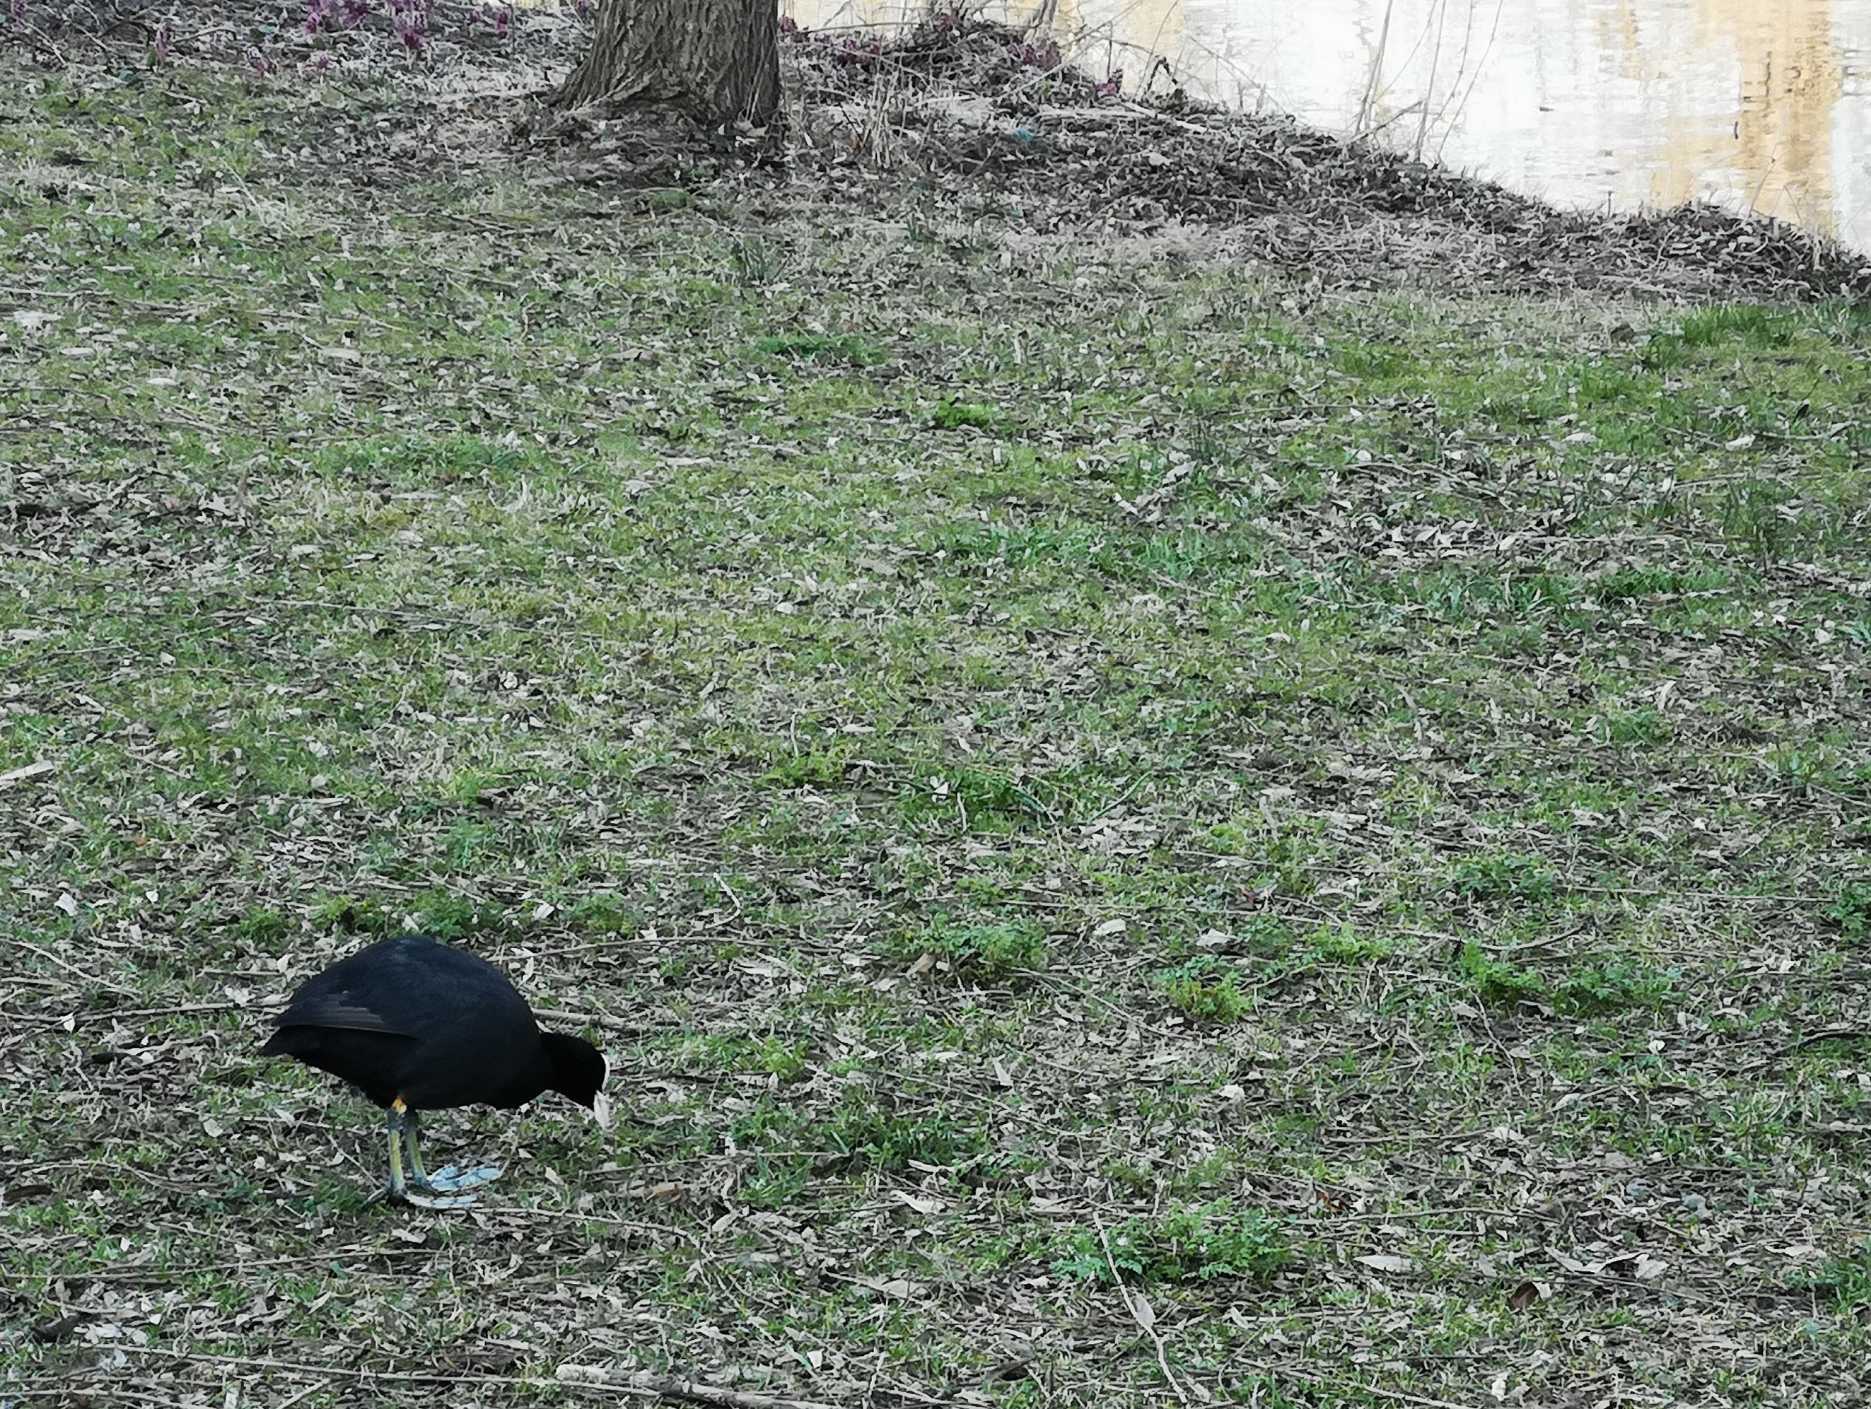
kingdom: Animalia
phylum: Chordata
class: Aves
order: Gruiformes
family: Rallidae
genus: Fulica
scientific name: Fulica atra
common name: Blishøne
